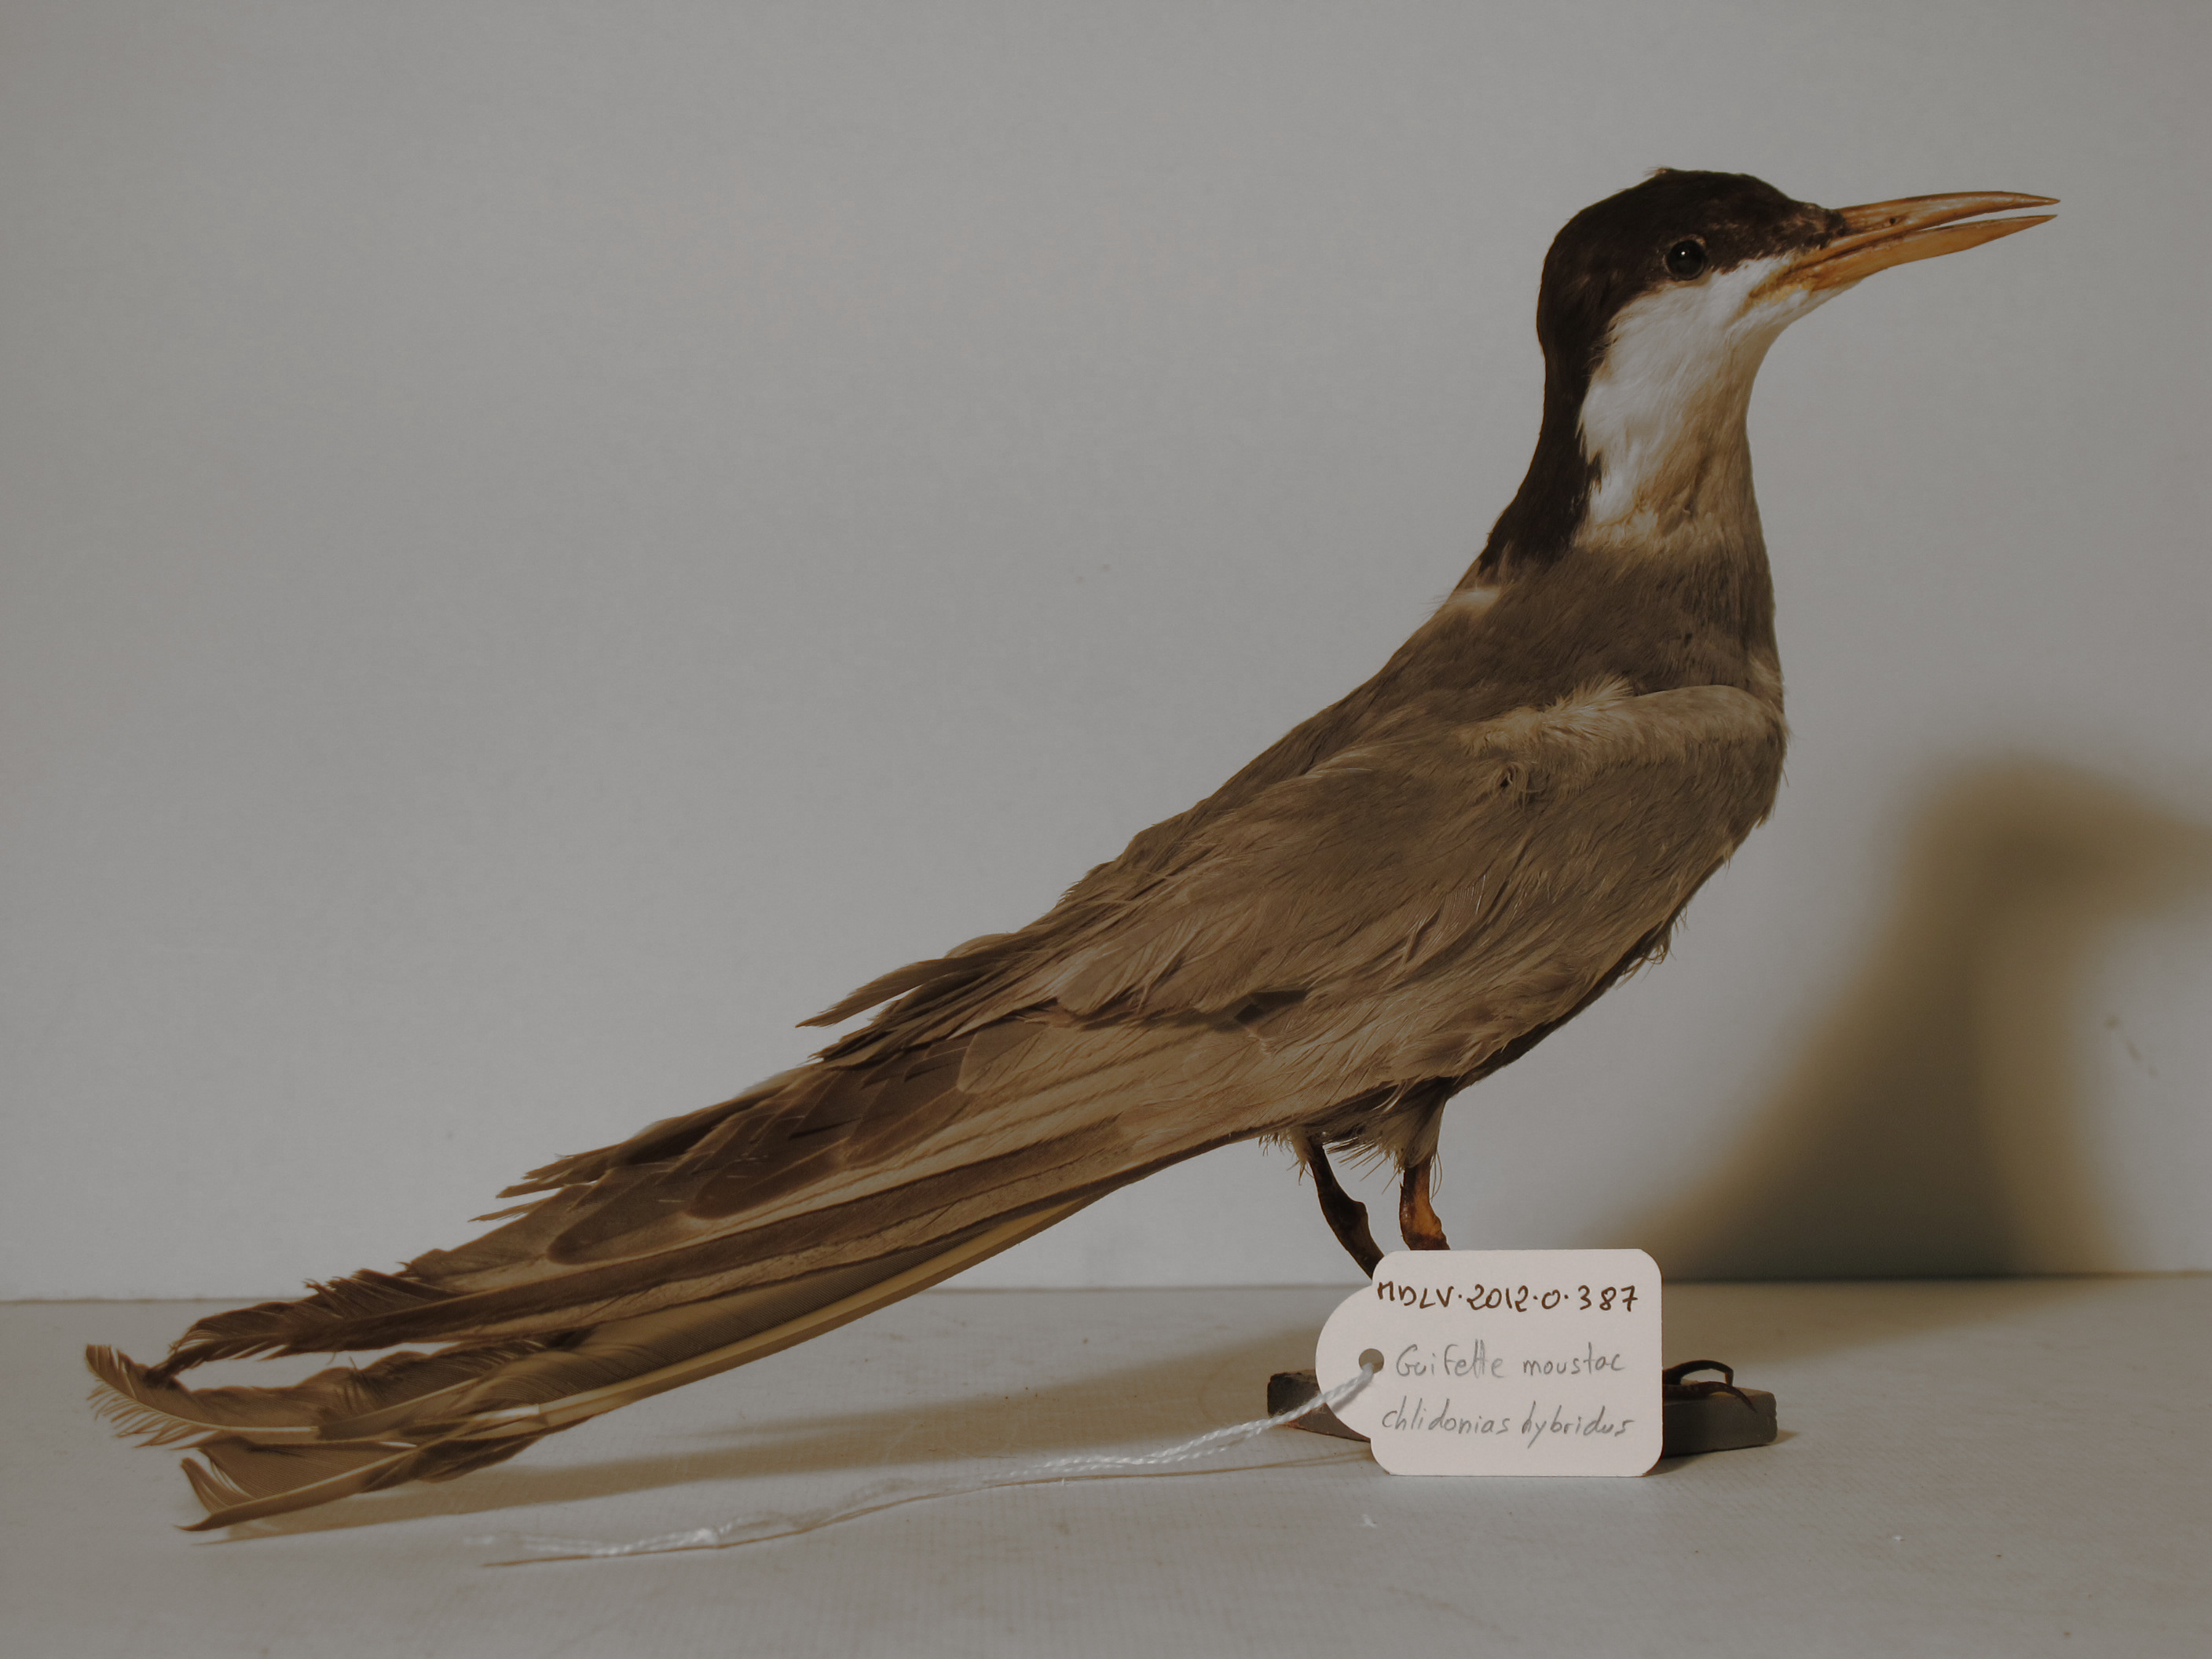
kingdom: Animalia
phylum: Chordata
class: Aves
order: Charadriiformes
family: Laridae
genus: Chlidonias
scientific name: Chlidonias hybrida
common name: Whiskered Tern
